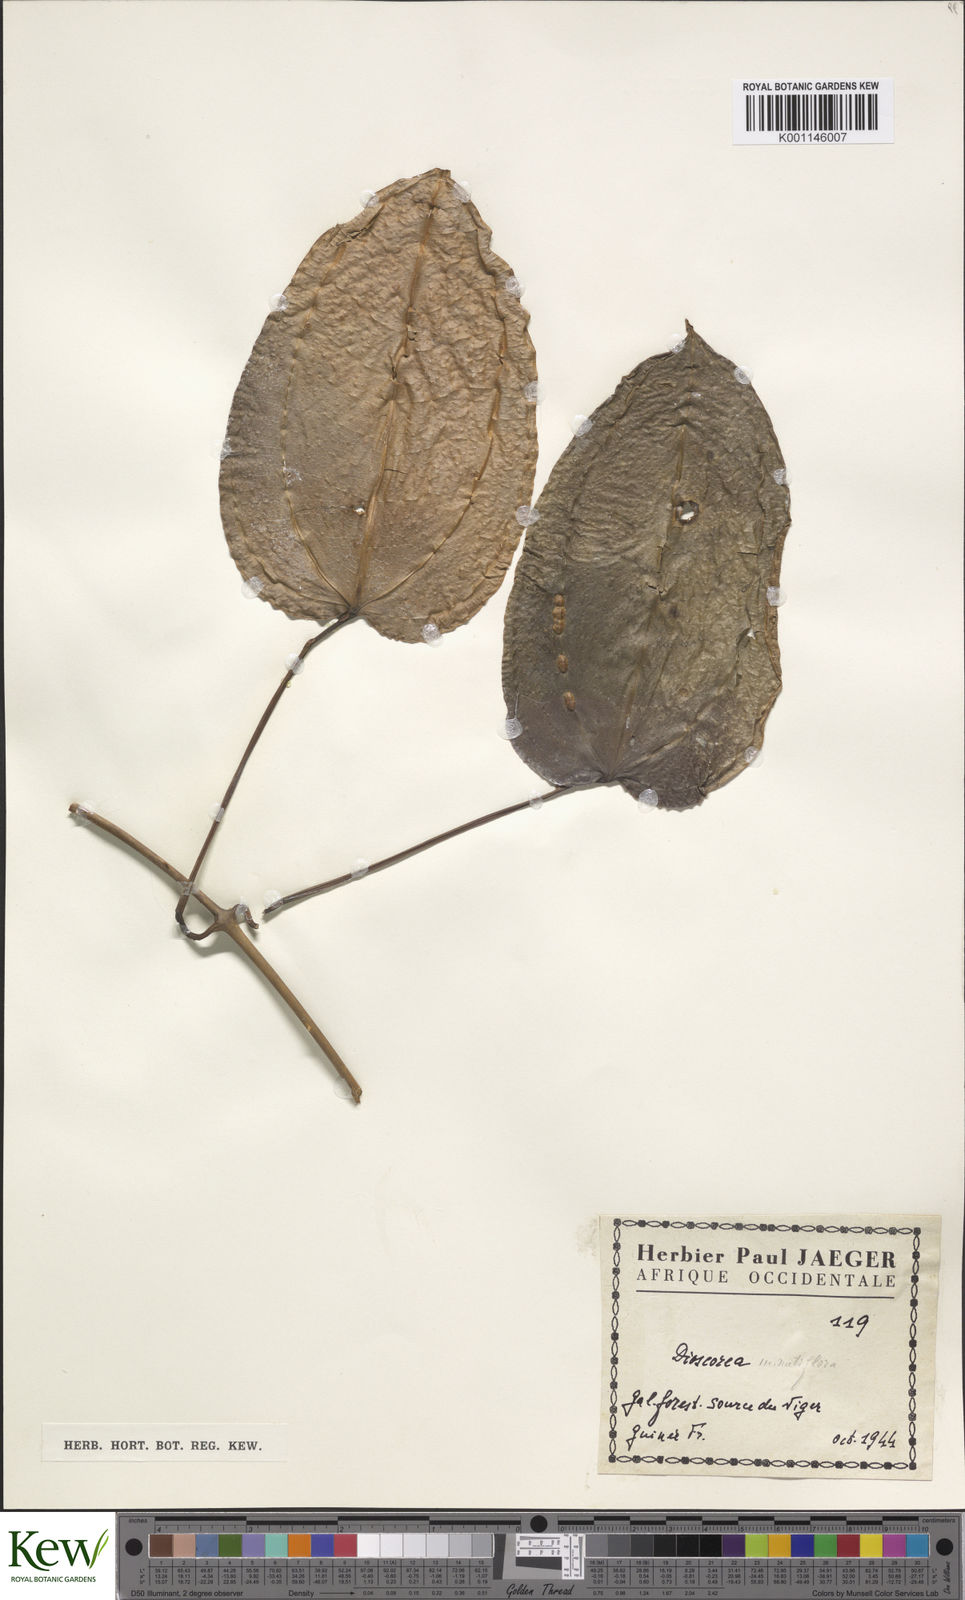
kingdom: Plantae
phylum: Tracheophyta
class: Liliopsida
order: Dioscoreales
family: Dioscoreaceae
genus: Dioscorea
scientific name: Dioscorea minutiflora
